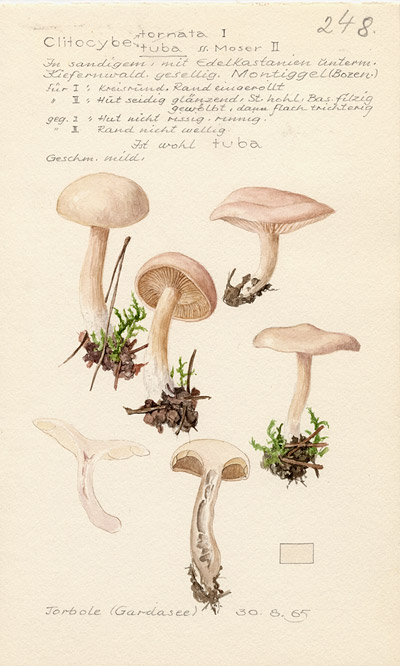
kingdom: Fungi
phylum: Basidiomycota
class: Agaricomycetes
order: Agaricales
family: Tricholomataceae
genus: Leucocybe
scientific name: Leucocybe candicans
